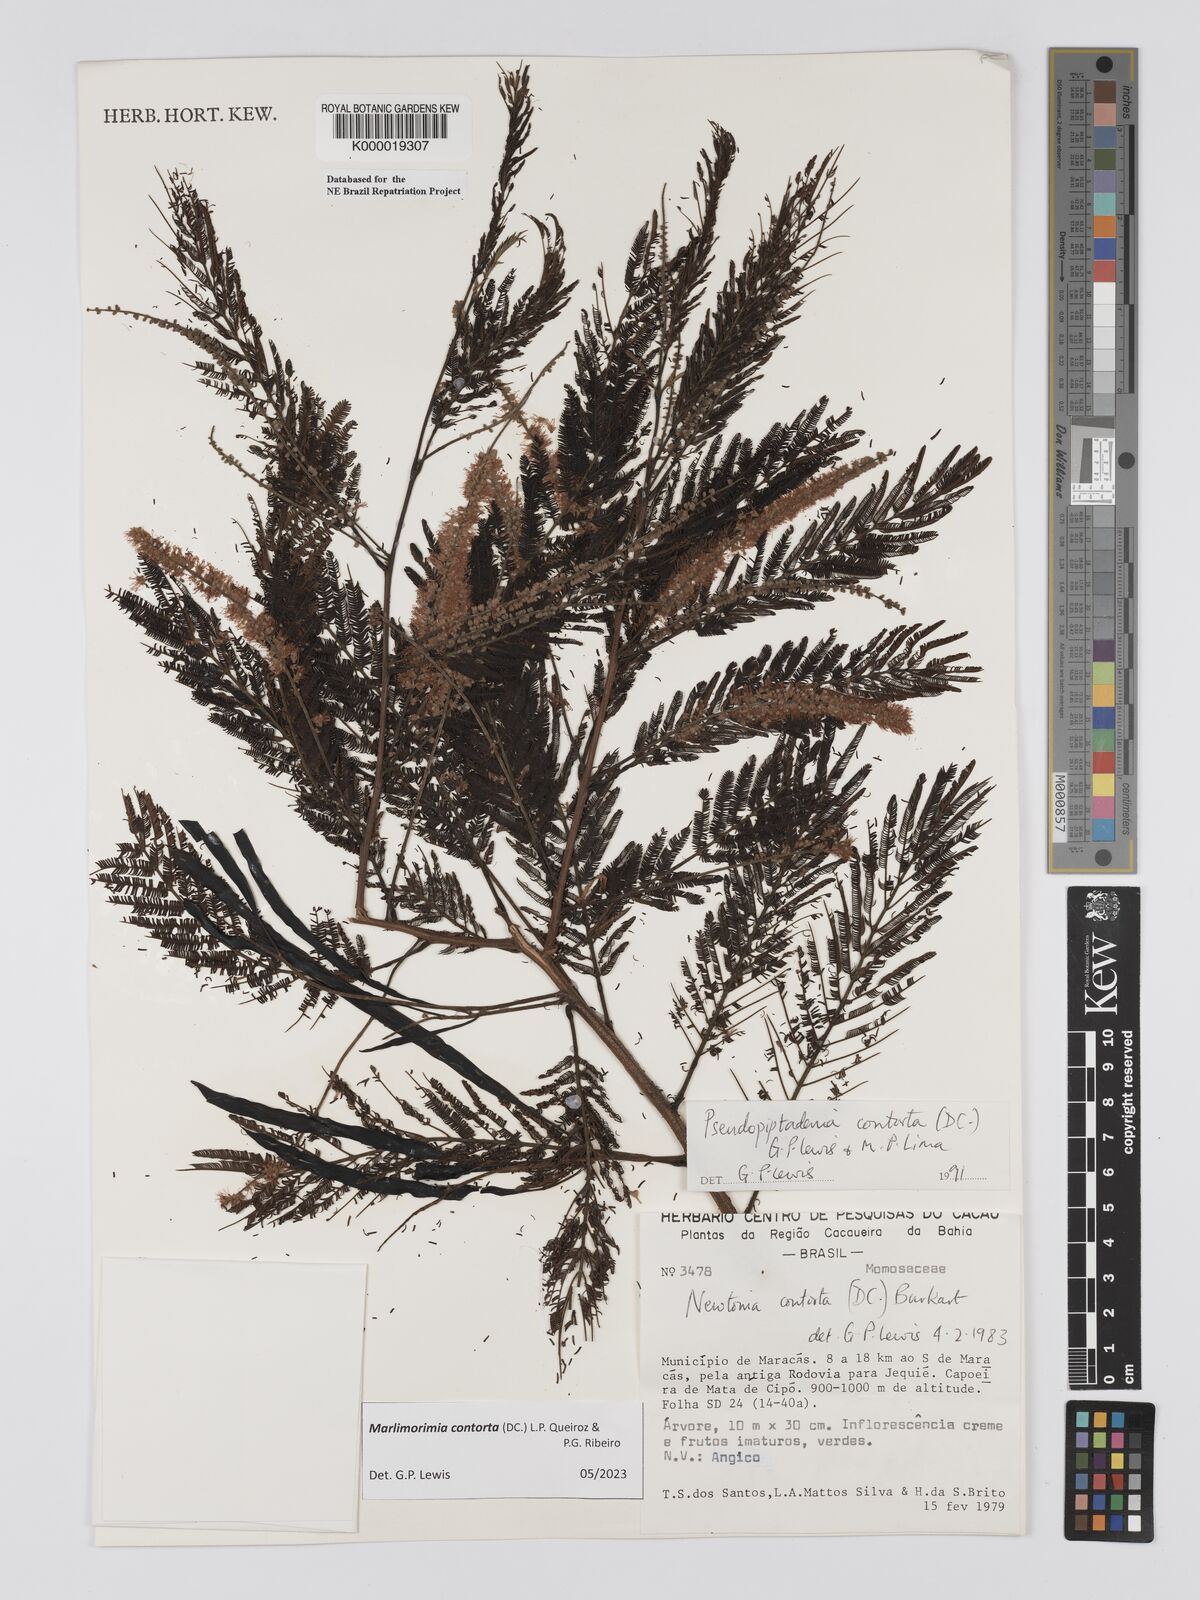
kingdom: Plantae
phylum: Tracheophyta
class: Magnoliopsida
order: Fabales
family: Fabaceae
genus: Pseudopiptadenia
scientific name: Pseudopiptadenia contorta
